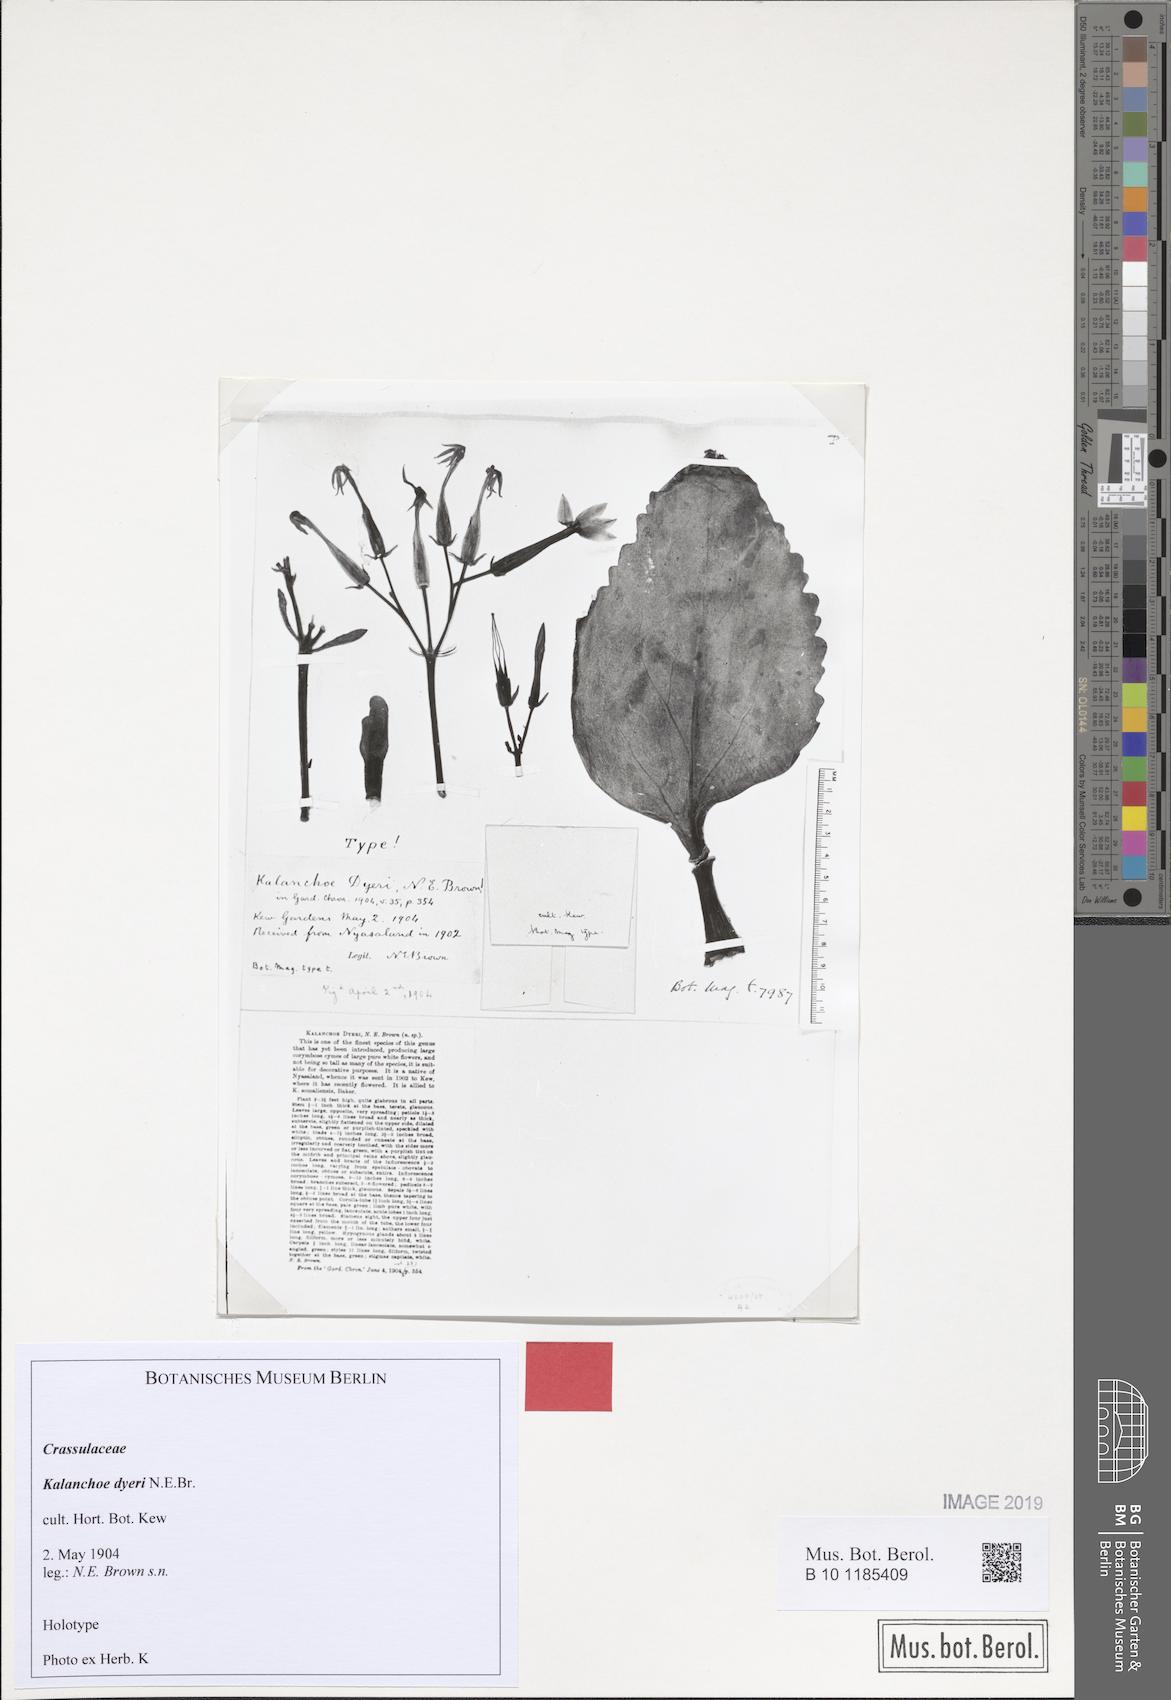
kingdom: Plantae
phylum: Tracheophyta
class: Magnoliopsida
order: Saxifragales
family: Crassulaceae
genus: Kalanchoe
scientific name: Kalanchoe dyeri
